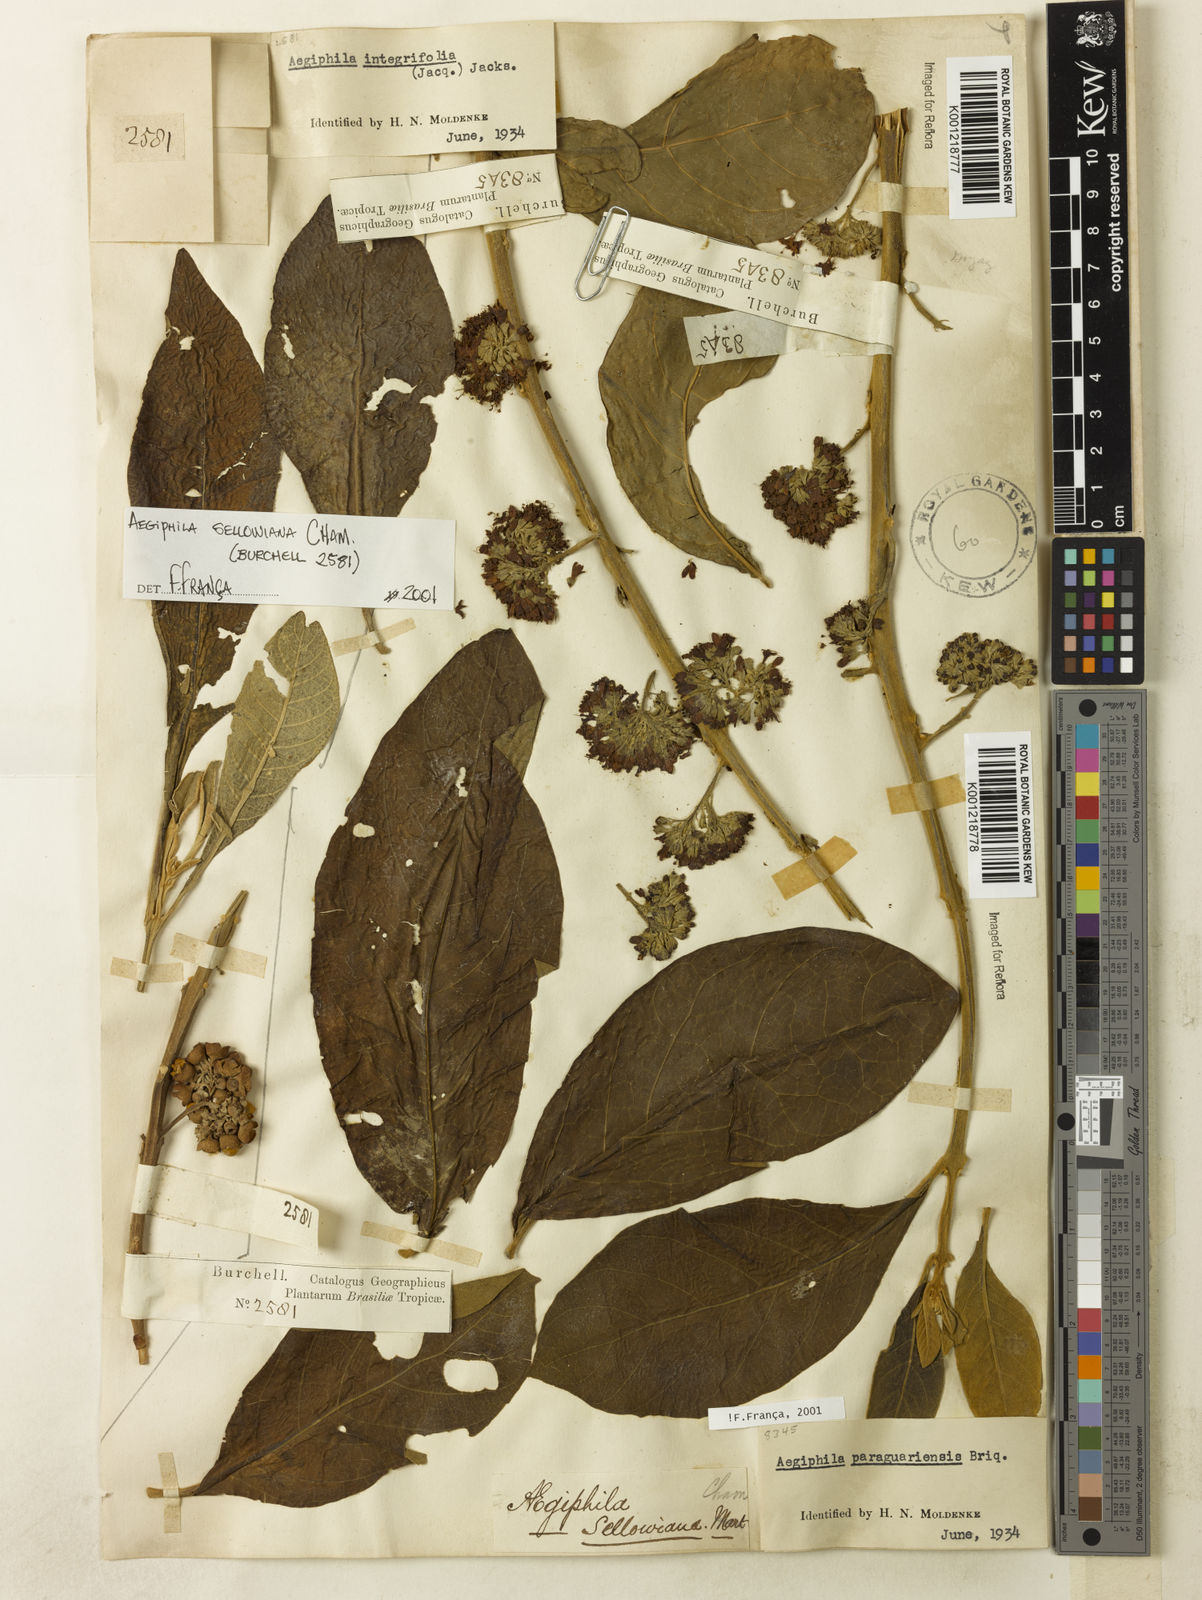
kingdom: Plantae
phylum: Tracheophyta
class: Magnoliopsida
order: Lamiales
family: Lamiaceae
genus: Aegiphila
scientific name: Aegiphila verticillata
